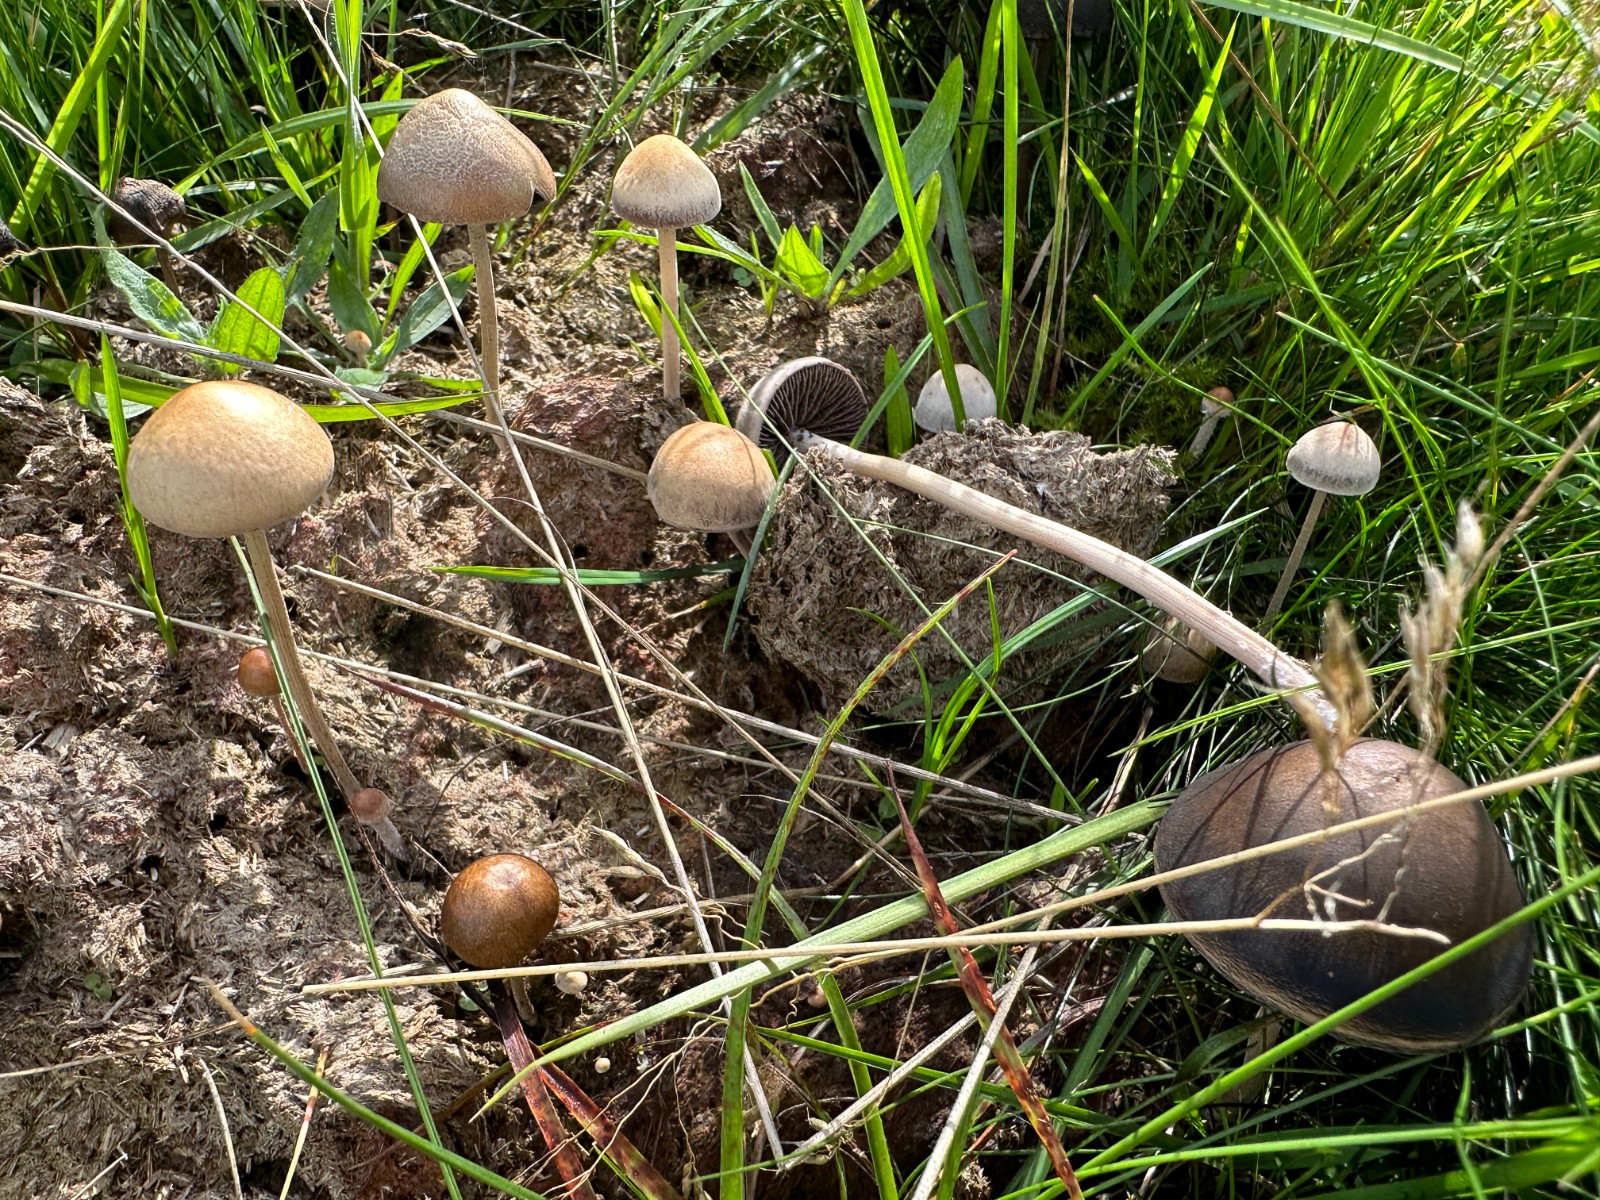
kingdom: Fungi
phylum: Basidiomycota
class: Agaricomycetes
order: Agaricales
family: Bolbitiaceae
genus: Panaeolus
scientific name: Panaeolus subfirmus
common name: fælled-glanshat
